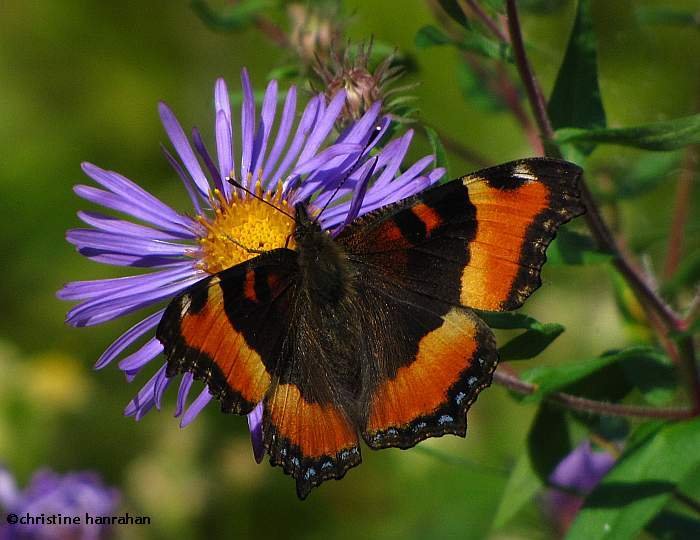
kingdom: Animalia
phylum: Arthropoda
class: Insecta
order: Lepidoptera
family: Nymphalidae
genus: Aglais
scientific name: Aglais milberti
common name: Milbert's Tortoiseshell
